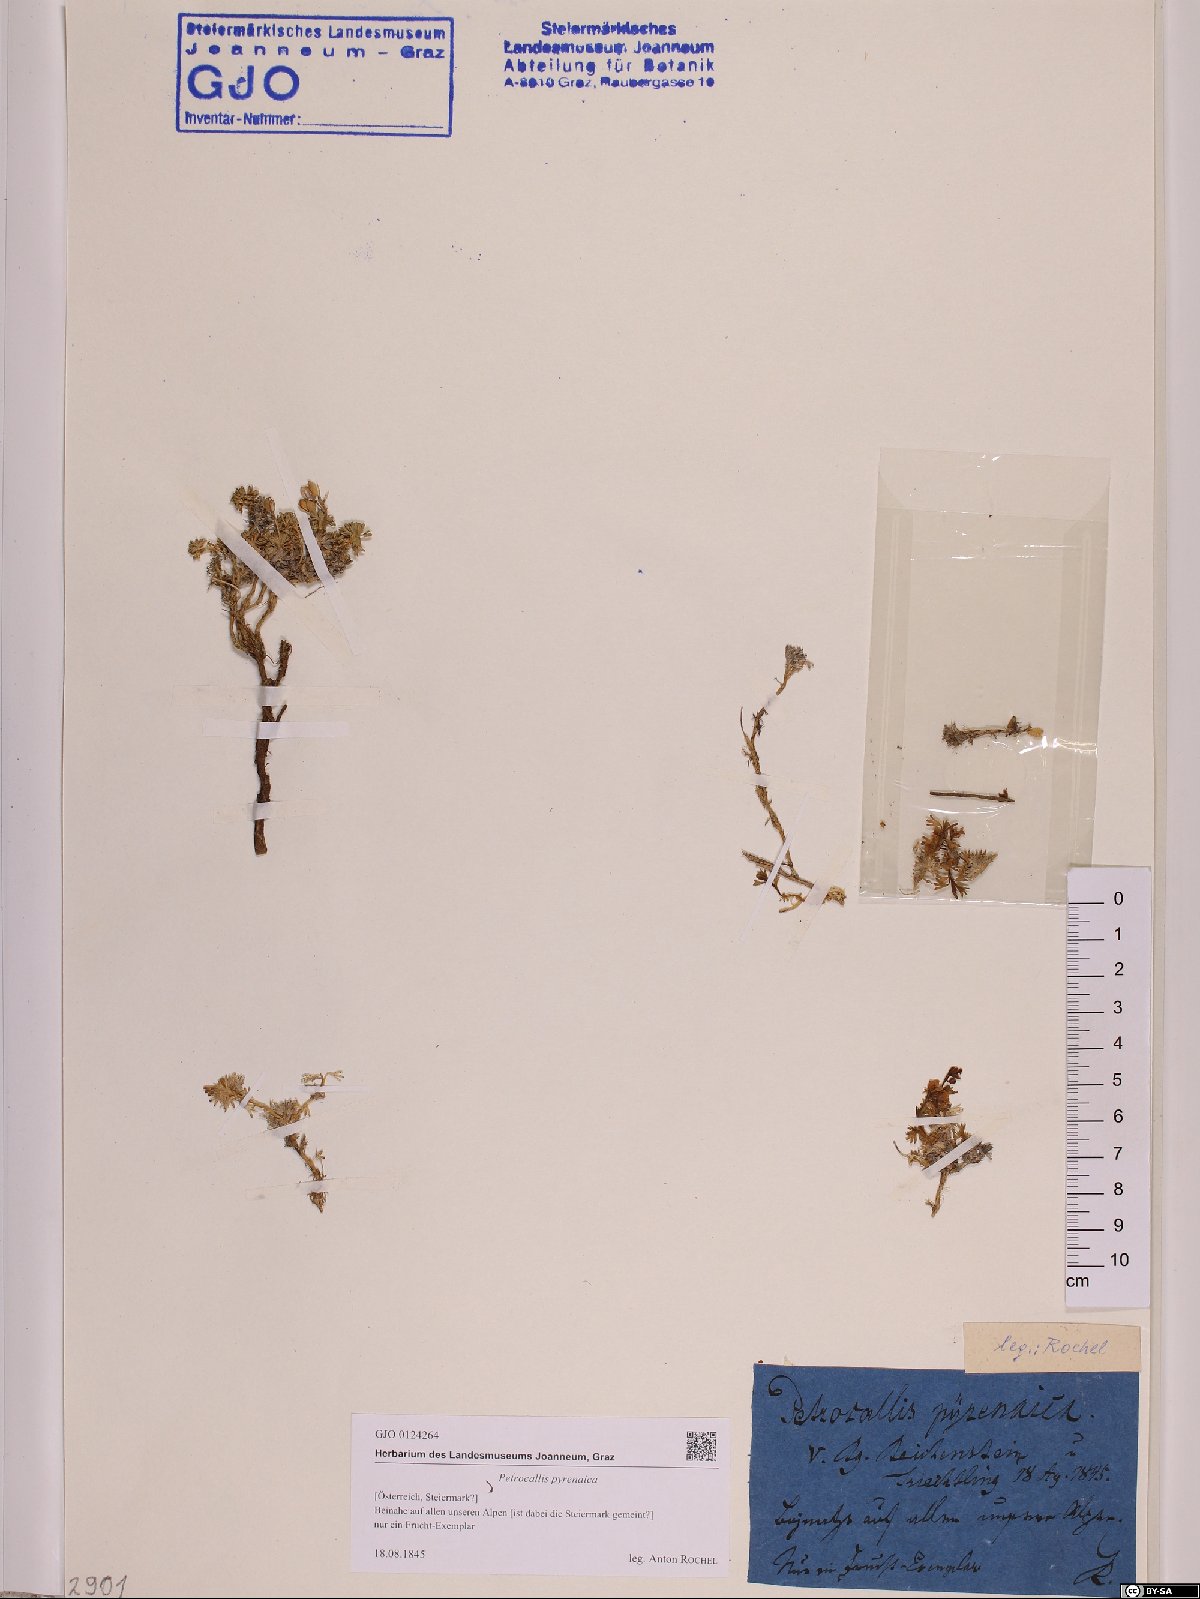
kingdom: Plantae
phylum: Tracheophyta
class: Magnoliopsida
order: Brassicales
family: Brassicaceae
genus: Petrocallis
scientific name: Petrocallis pyrenaica
